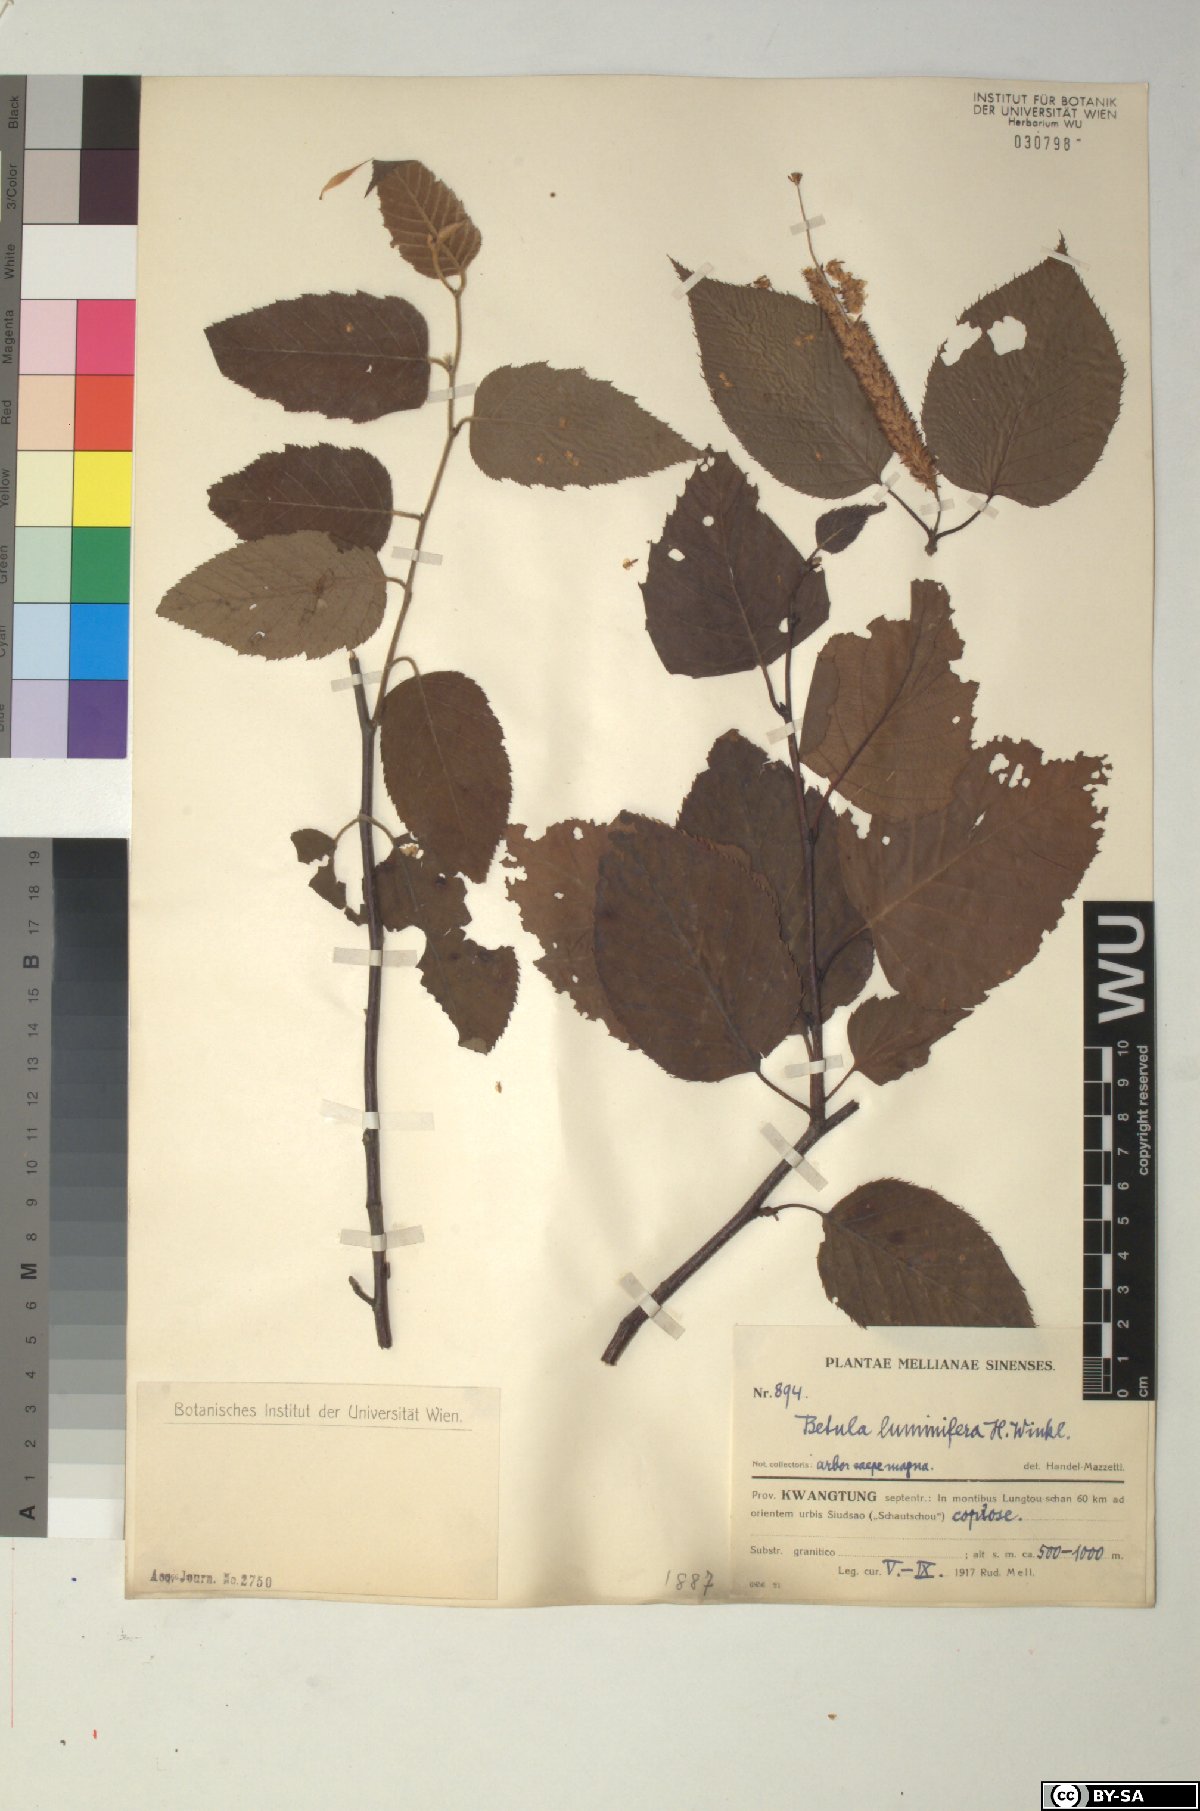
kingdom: Plantae
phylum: Tracheophyta
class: Magnoliopsida
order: Fagales
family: Betulaceae
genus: Betula
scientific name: Betula luminifera
